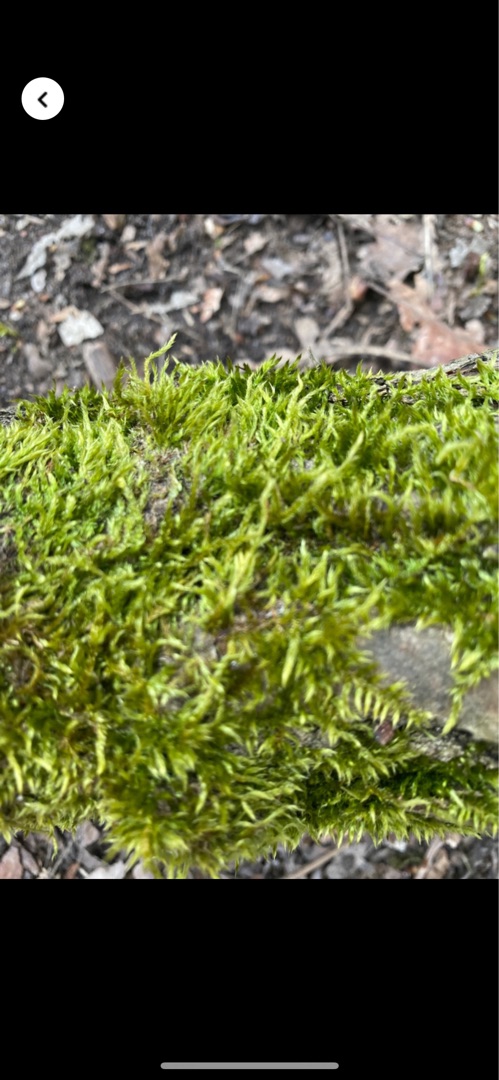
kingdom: Plantae
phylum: Bryophyta
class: Bryopsida
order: Hypnales
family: Hypnaceae
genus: Hypnum
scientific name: Hypnum
